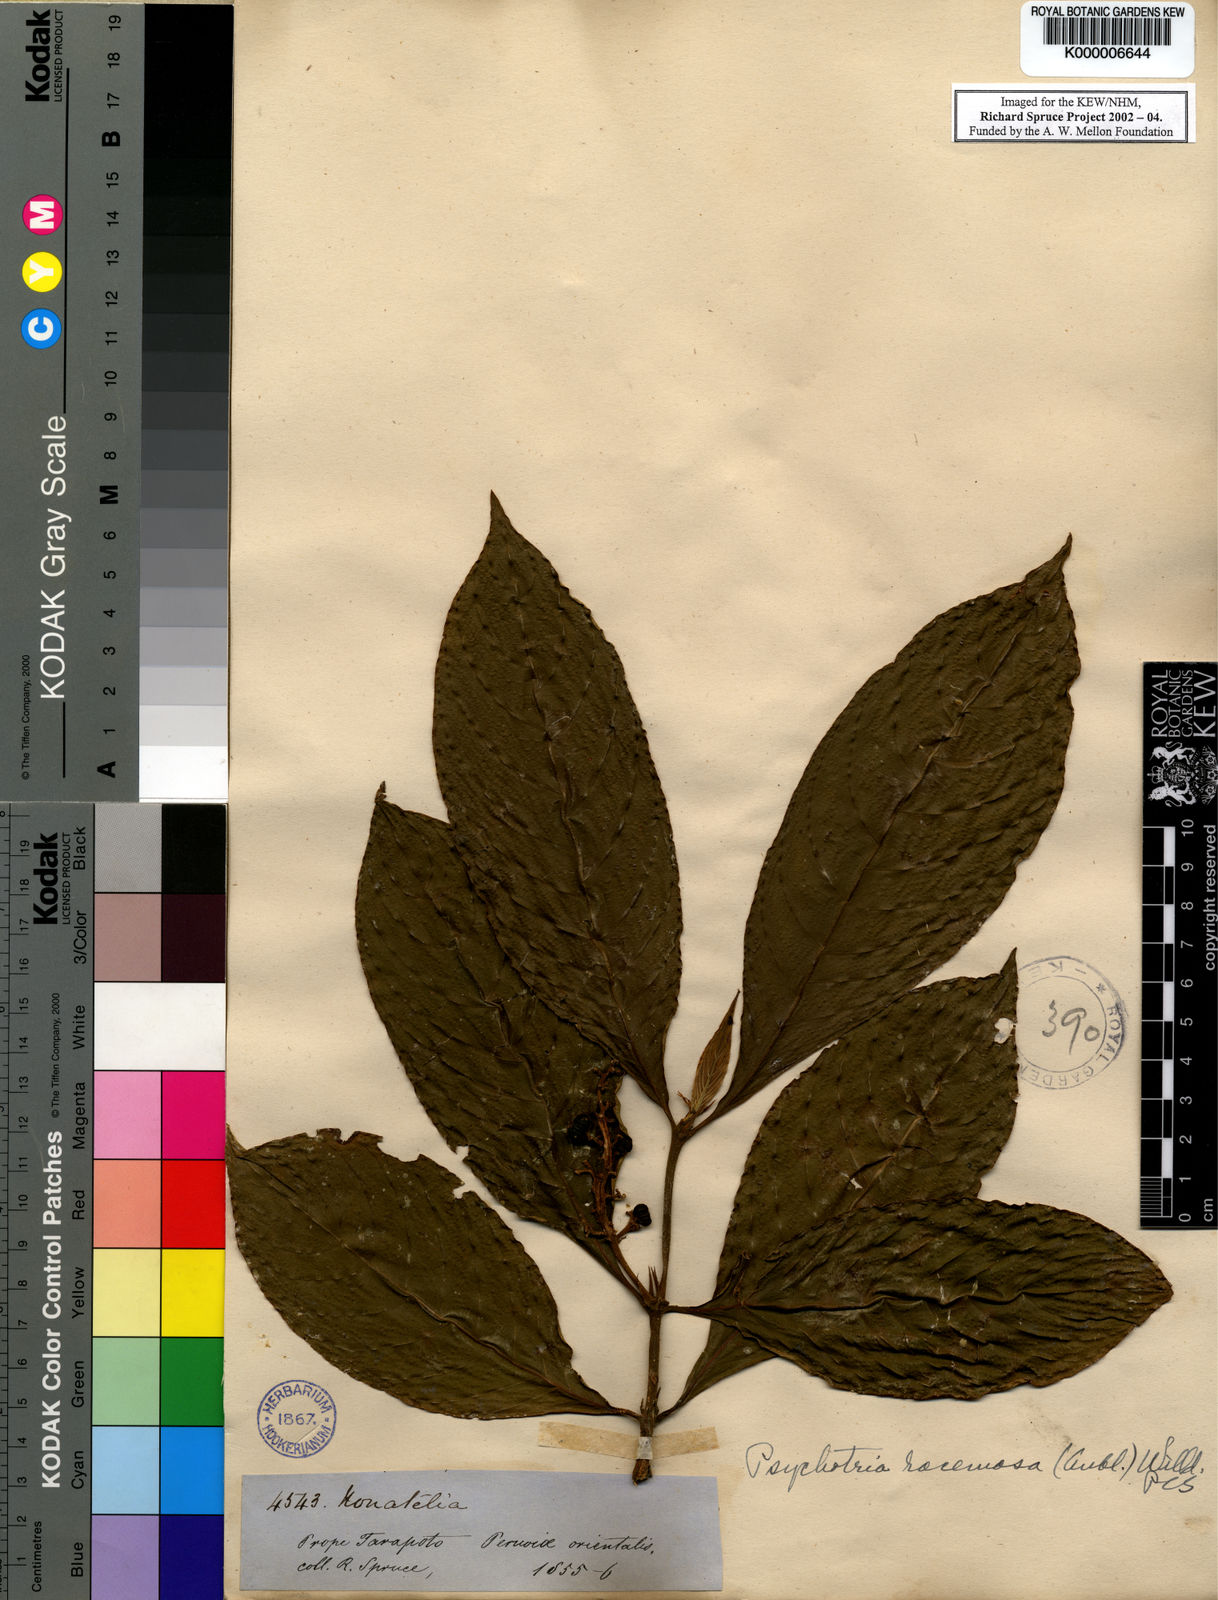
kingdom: Plantae
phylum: Tracheophyta
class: Magnoliopsida
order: Gentianales
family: Rubiaceae
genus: Psychotria
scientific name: Psychotria
